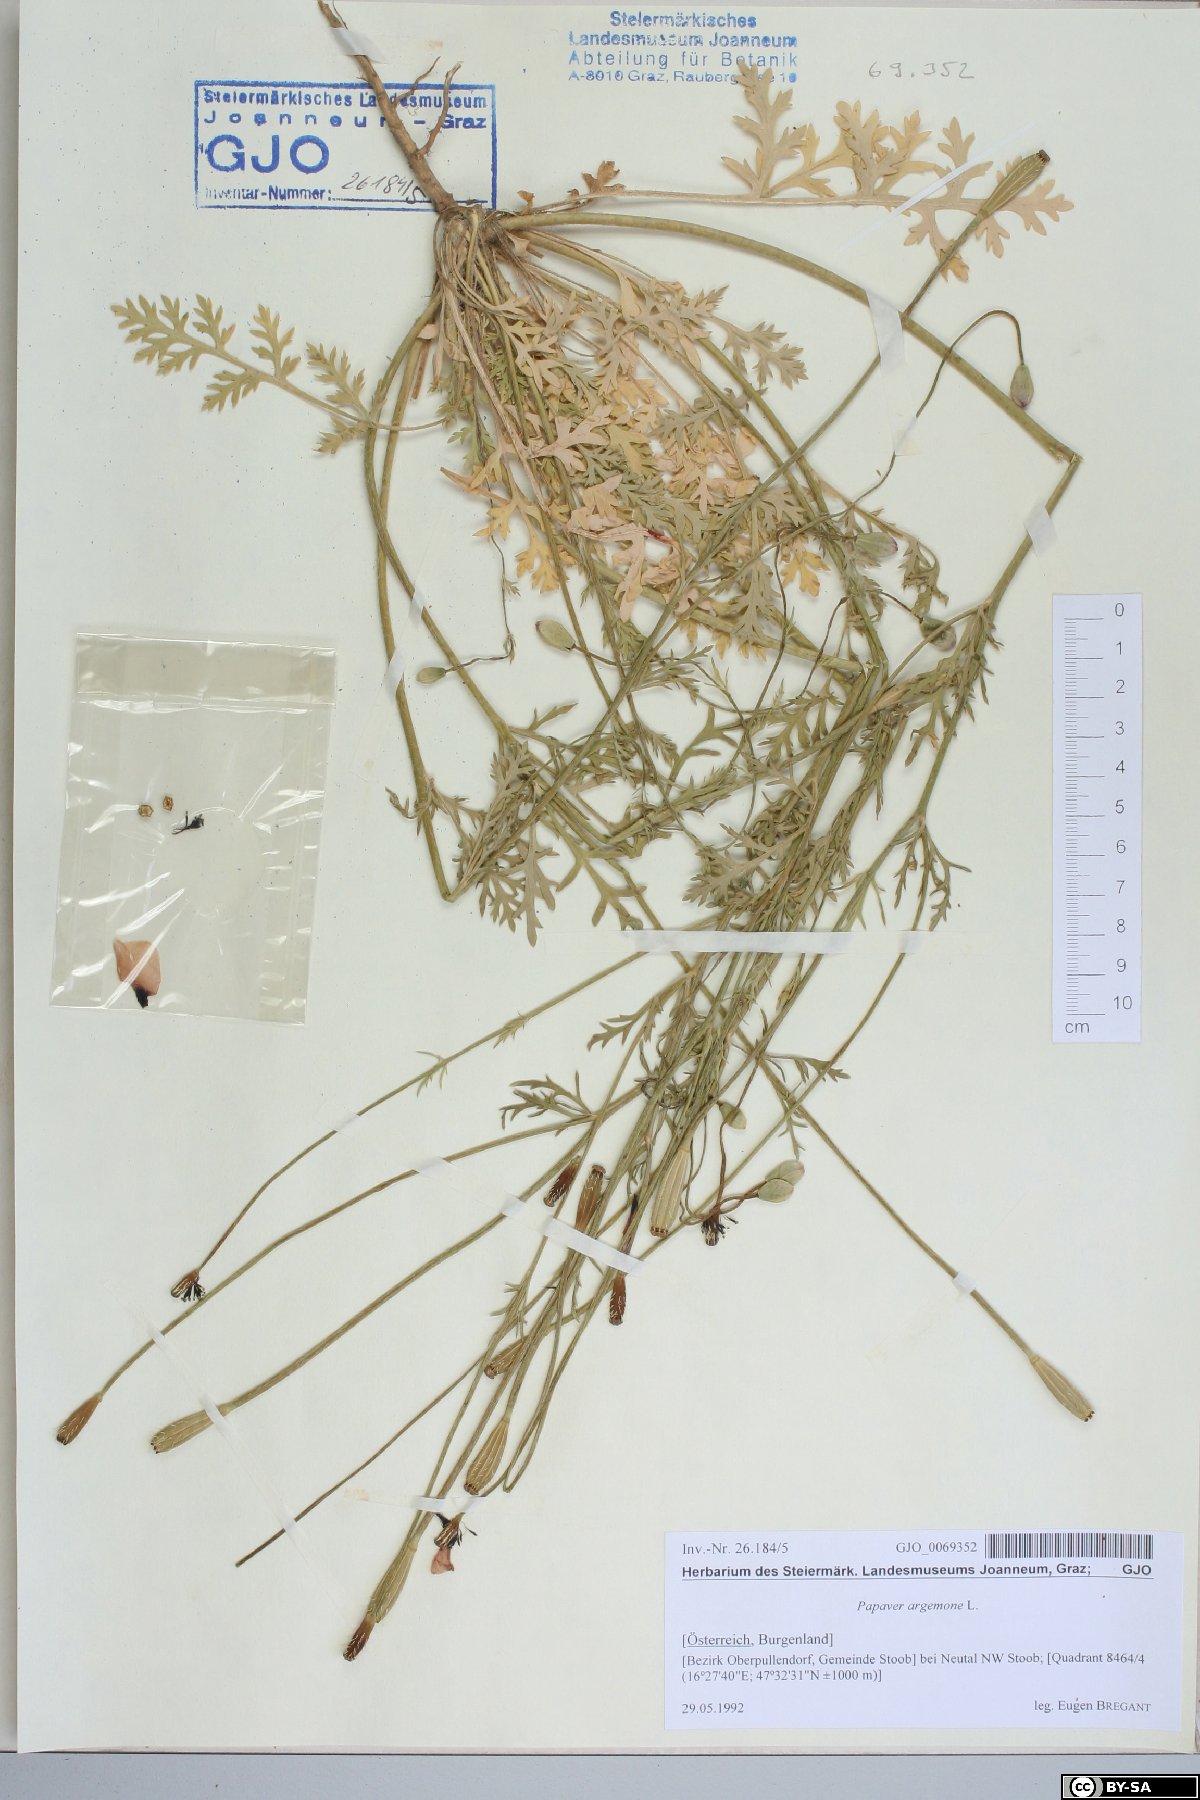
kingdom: Plantae
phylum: Tracheophyta
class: Magnoliopsida
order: Ranunculales
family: Papaveraceae
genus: Roemeria
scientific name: Roemeria argemone
